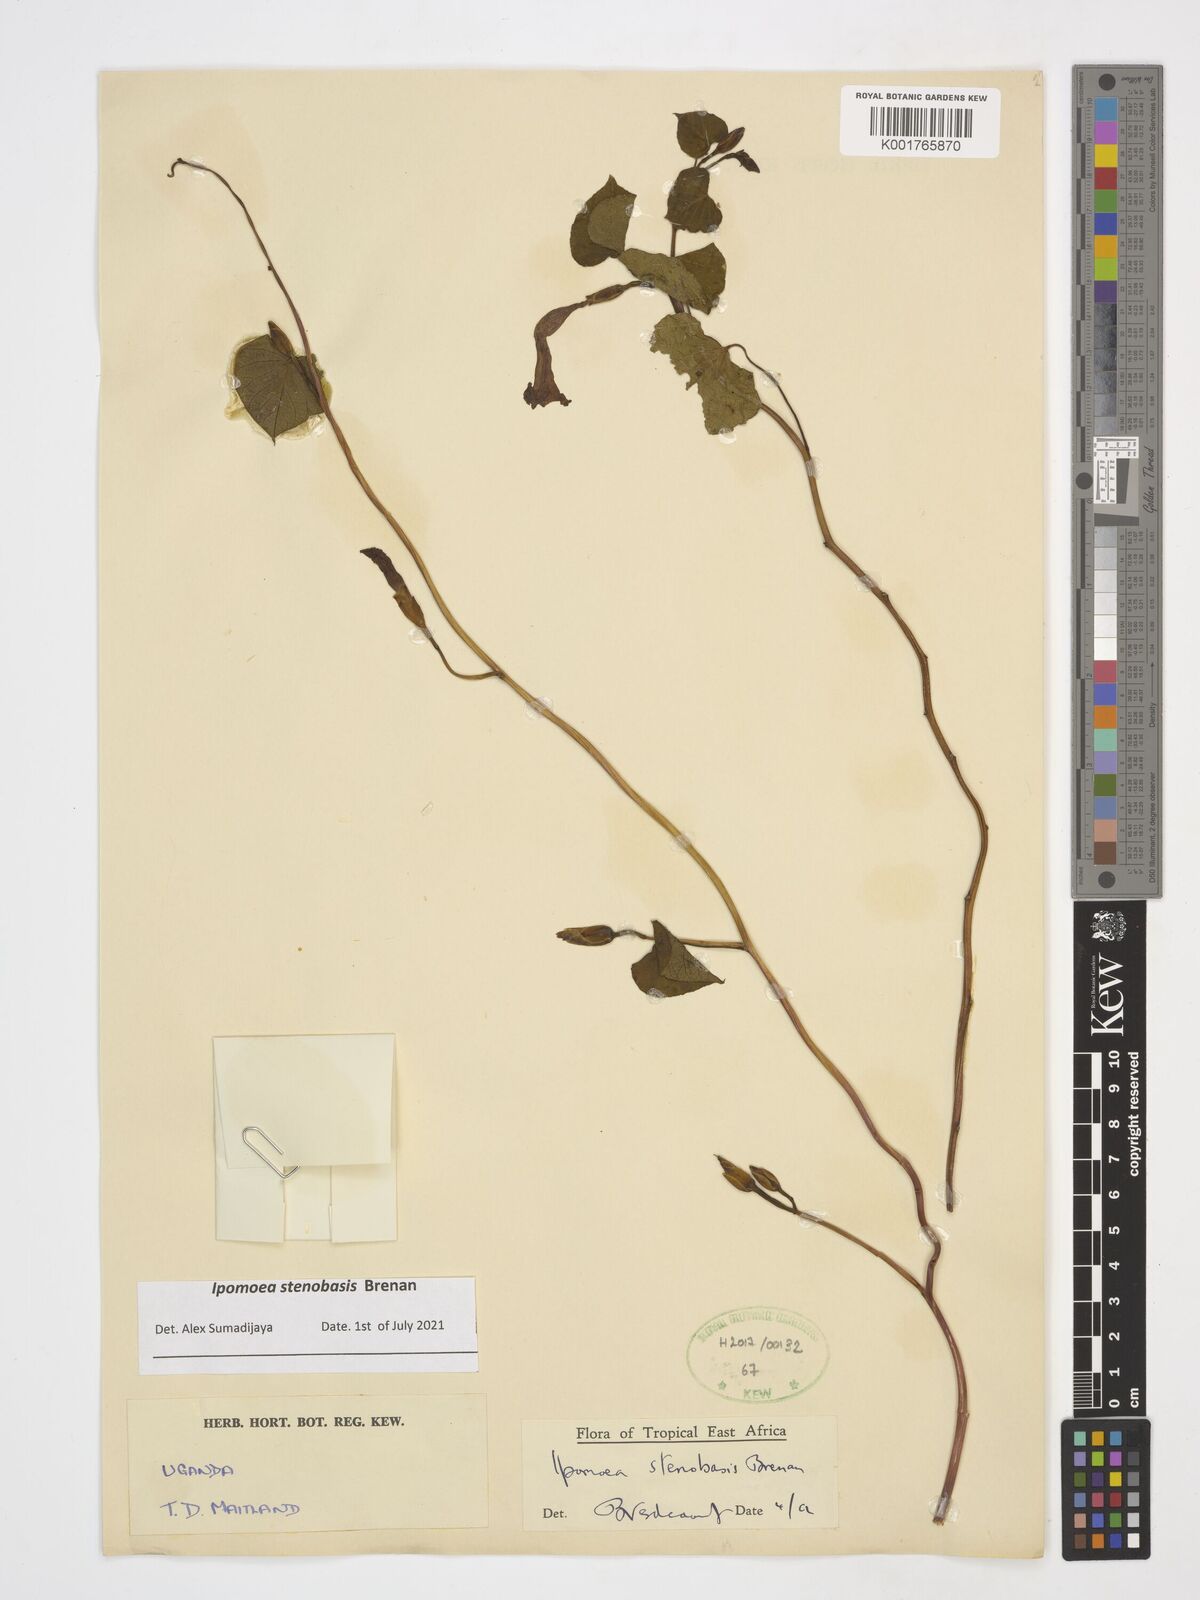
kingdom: Plantae
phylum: Tracheophyta
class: Magnoliopsida
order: Solanales
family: Convolvulaceae
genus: Ipomoea
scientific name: Ipomoea stenobasis
